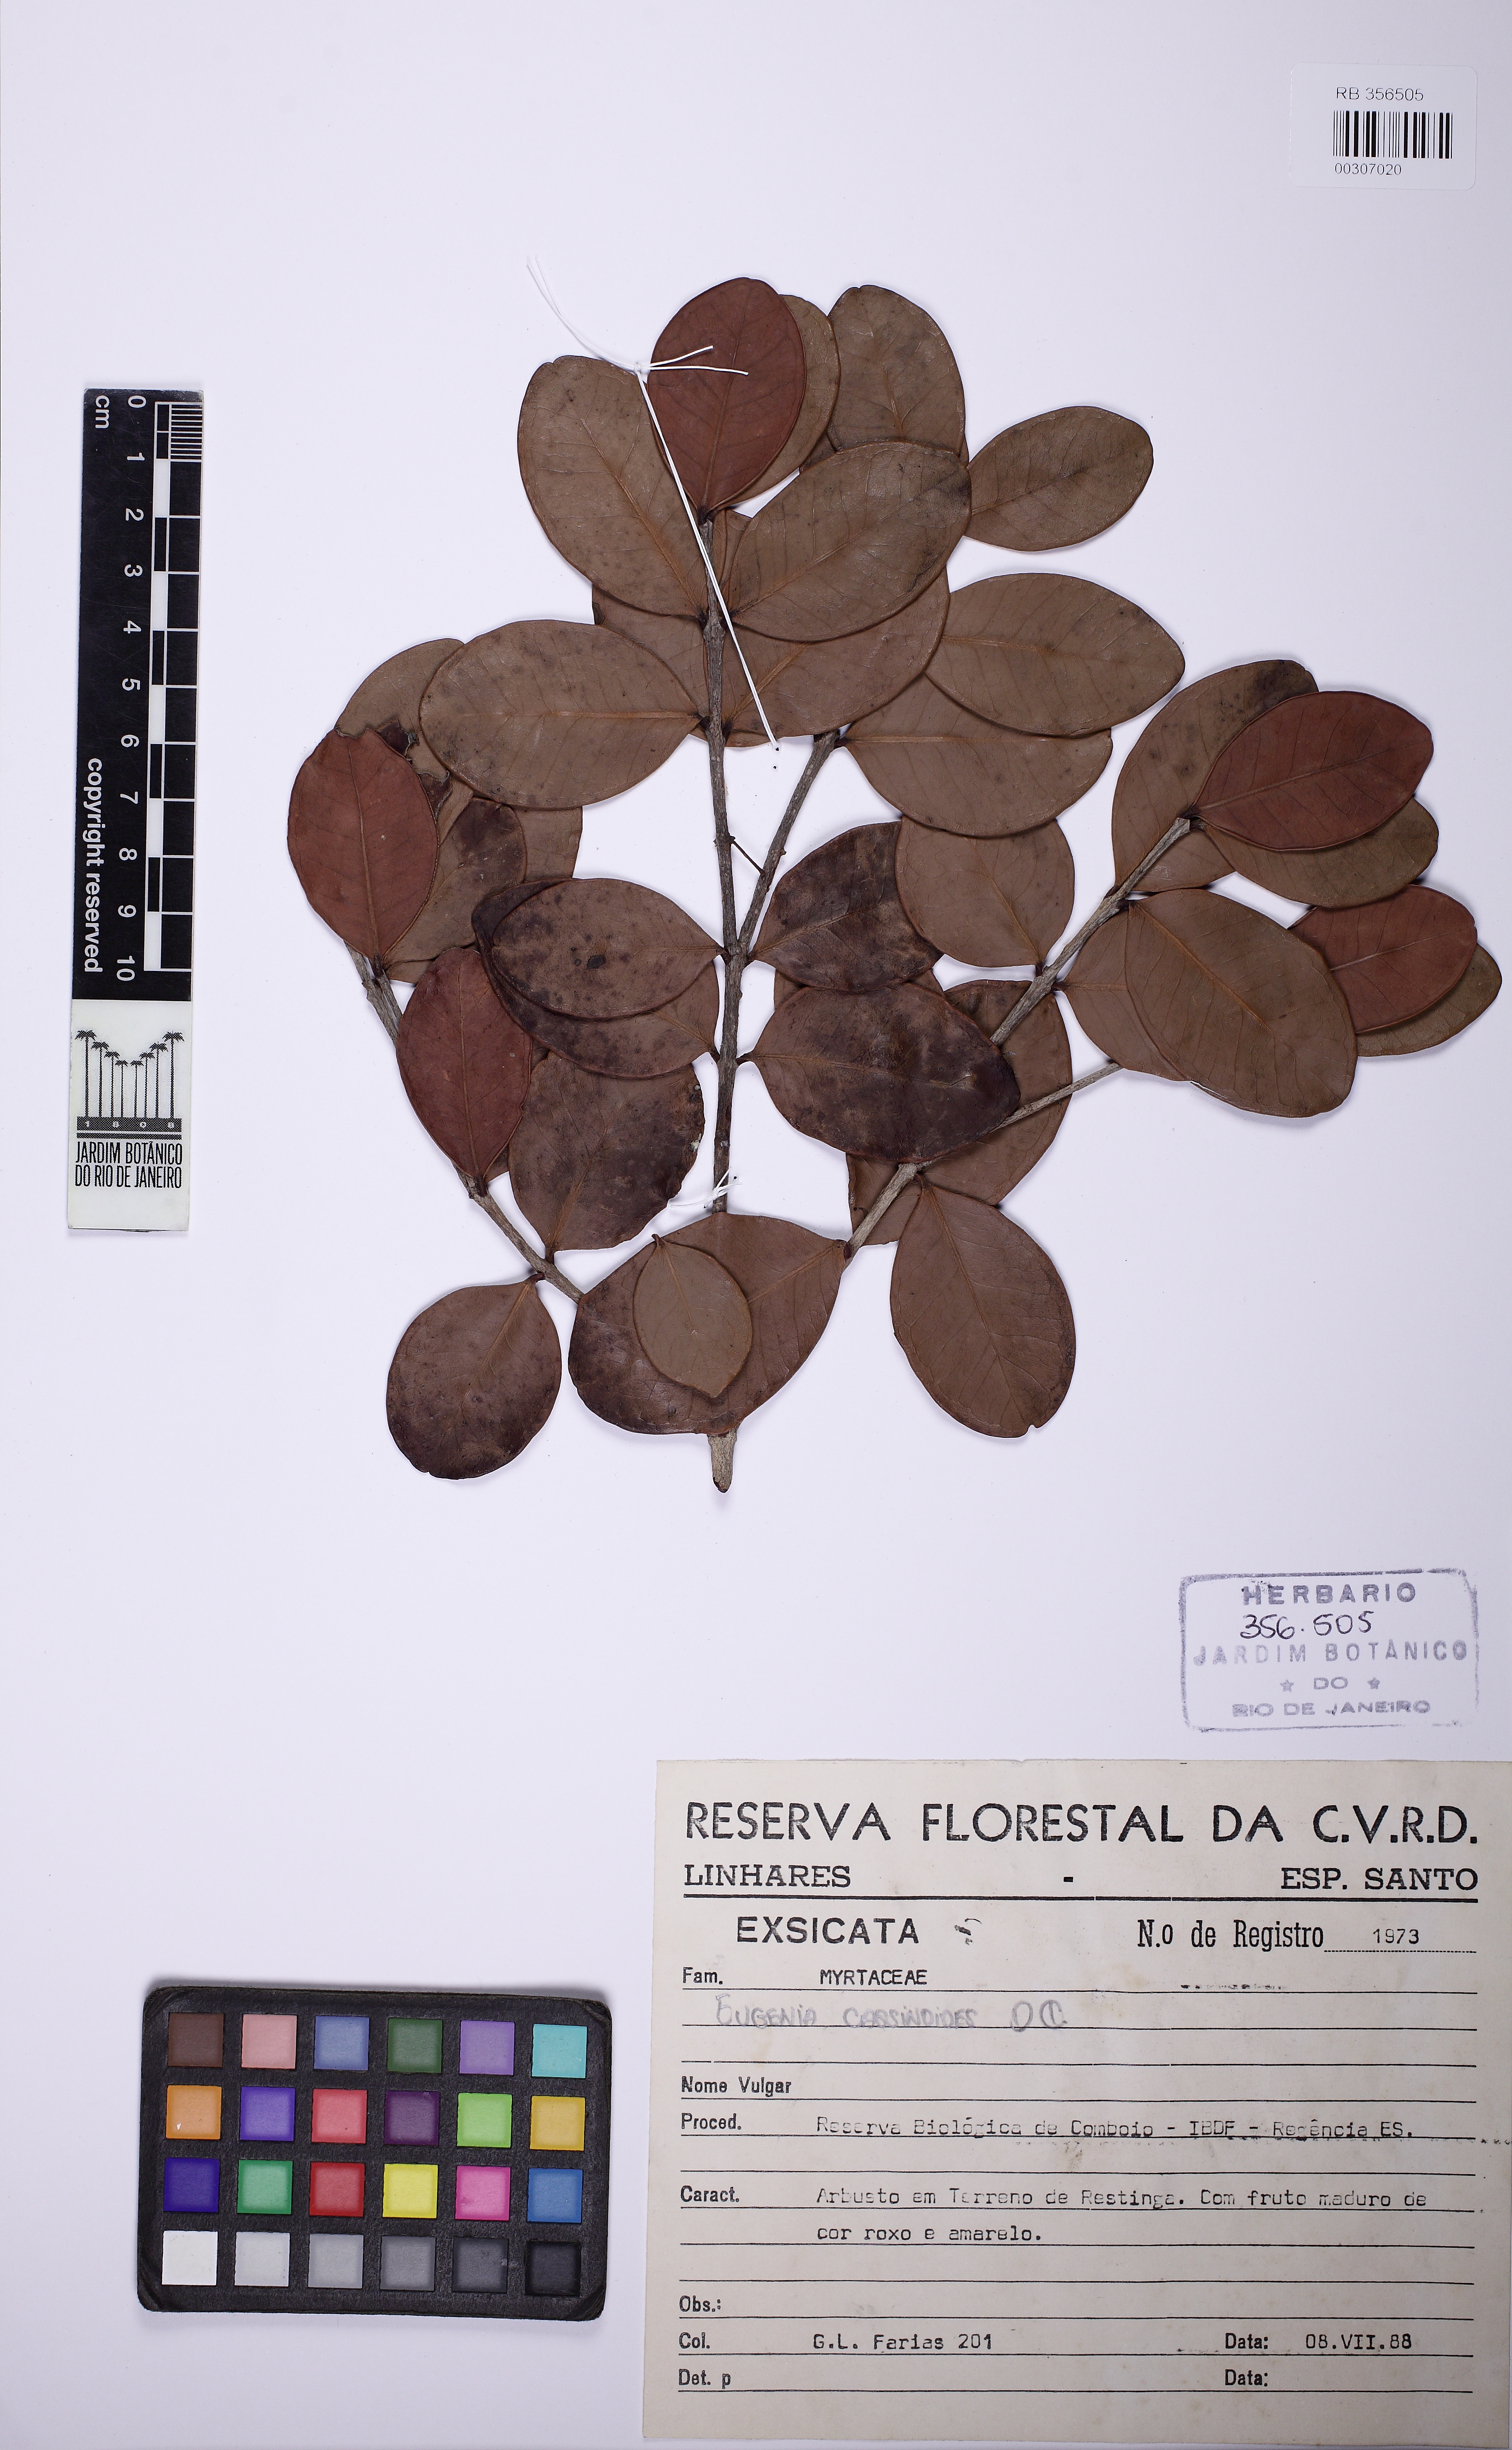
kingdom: Plantae
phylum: Tracheophyta
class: Magnoliopsida
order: Myrtales
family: Myrtaceae
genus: Eugenia
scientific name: Eugenia astringens
